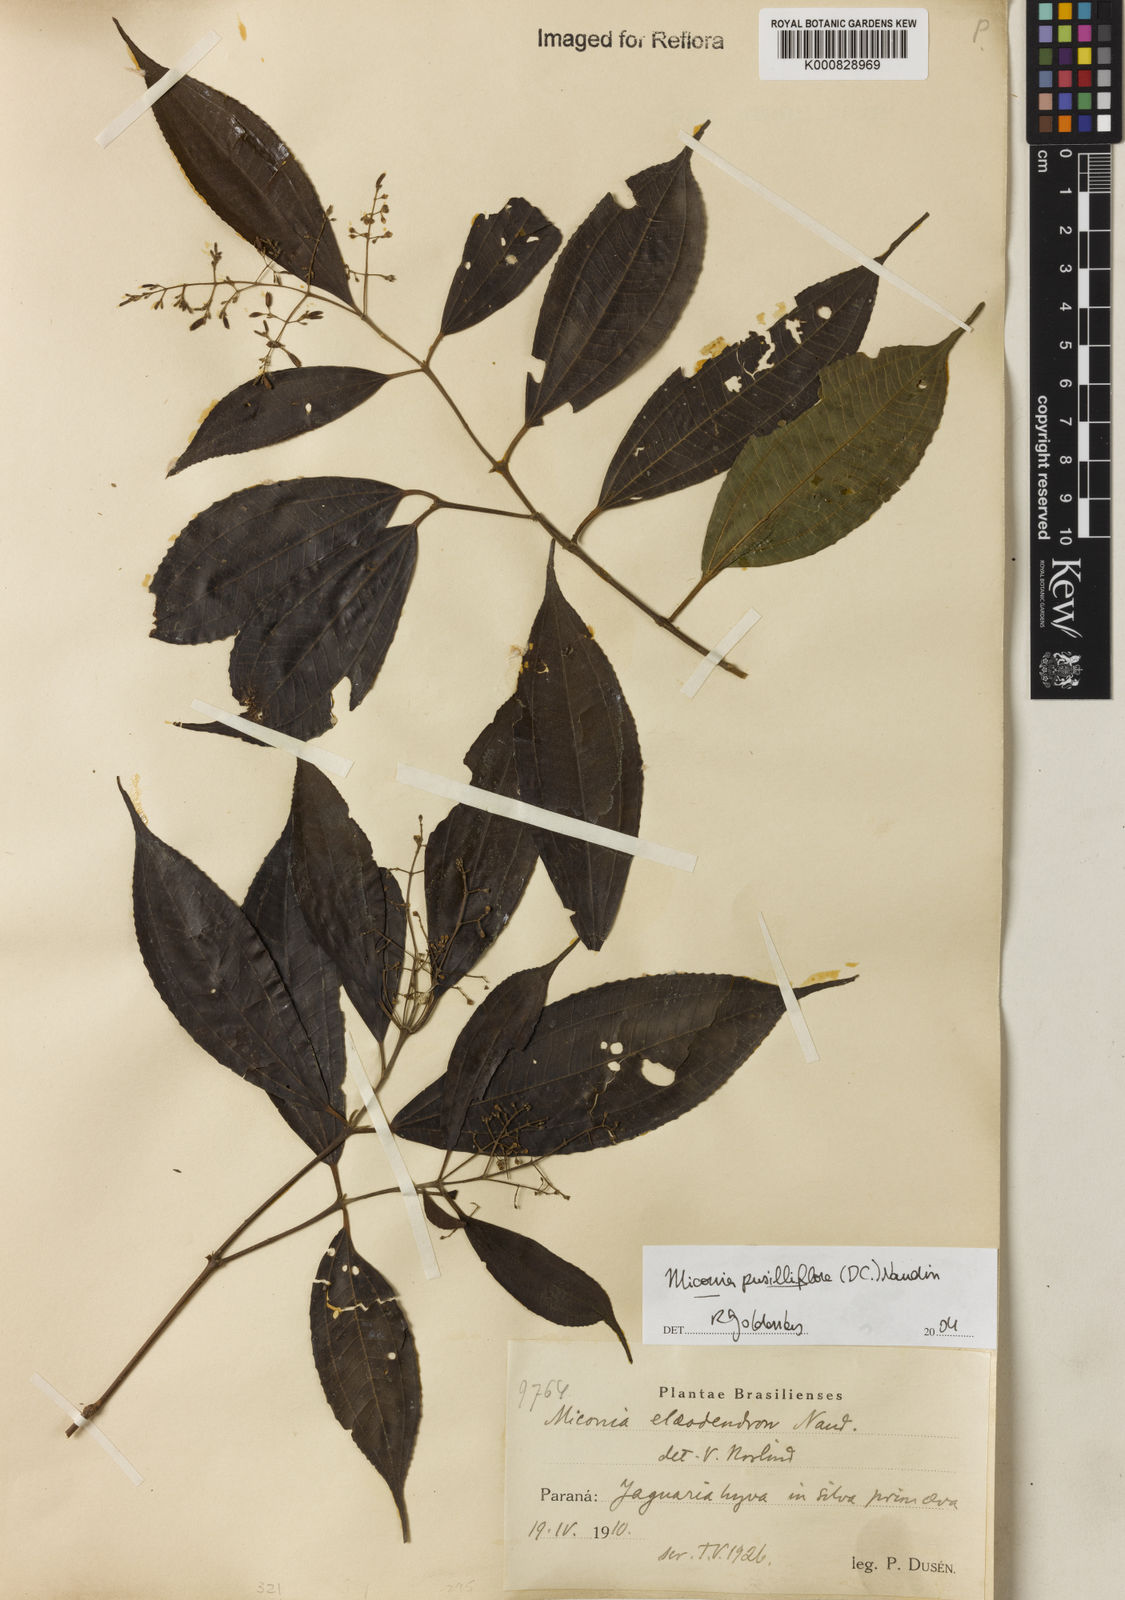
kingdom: Plantae
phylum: Tracheophyta
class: Magnoliopsida
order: Myrtales
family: Melastomataceae
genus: Miconia
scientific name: Miconia pusilliflora
